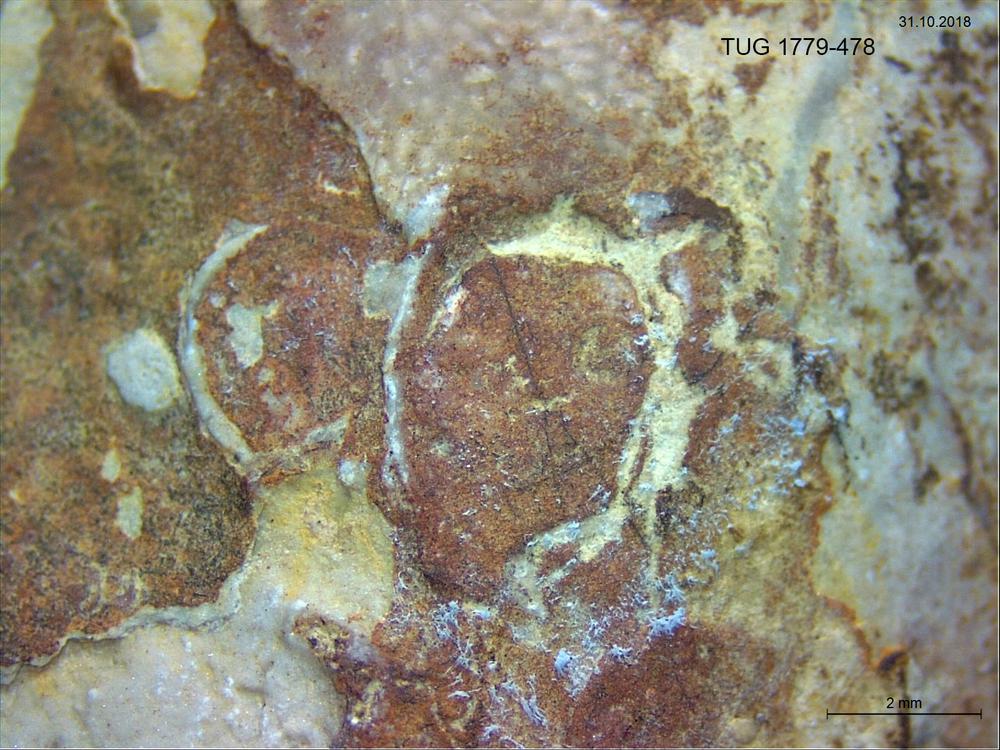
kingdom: Animalia
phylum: Brachiopoda
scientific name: Brachiopoda
